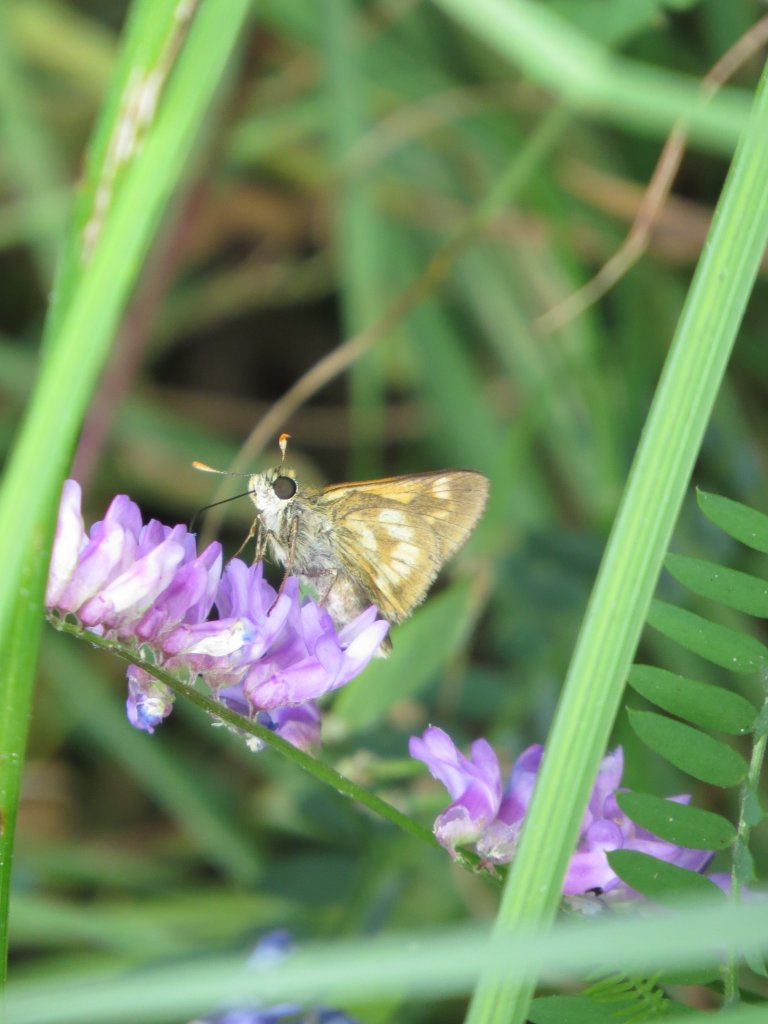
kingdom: Animalia
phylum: Arthropoda
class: Insecta
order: Lepidoptera
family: Hesperiidae
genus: Polites
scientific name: Polites
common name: Long Dash Skipper
